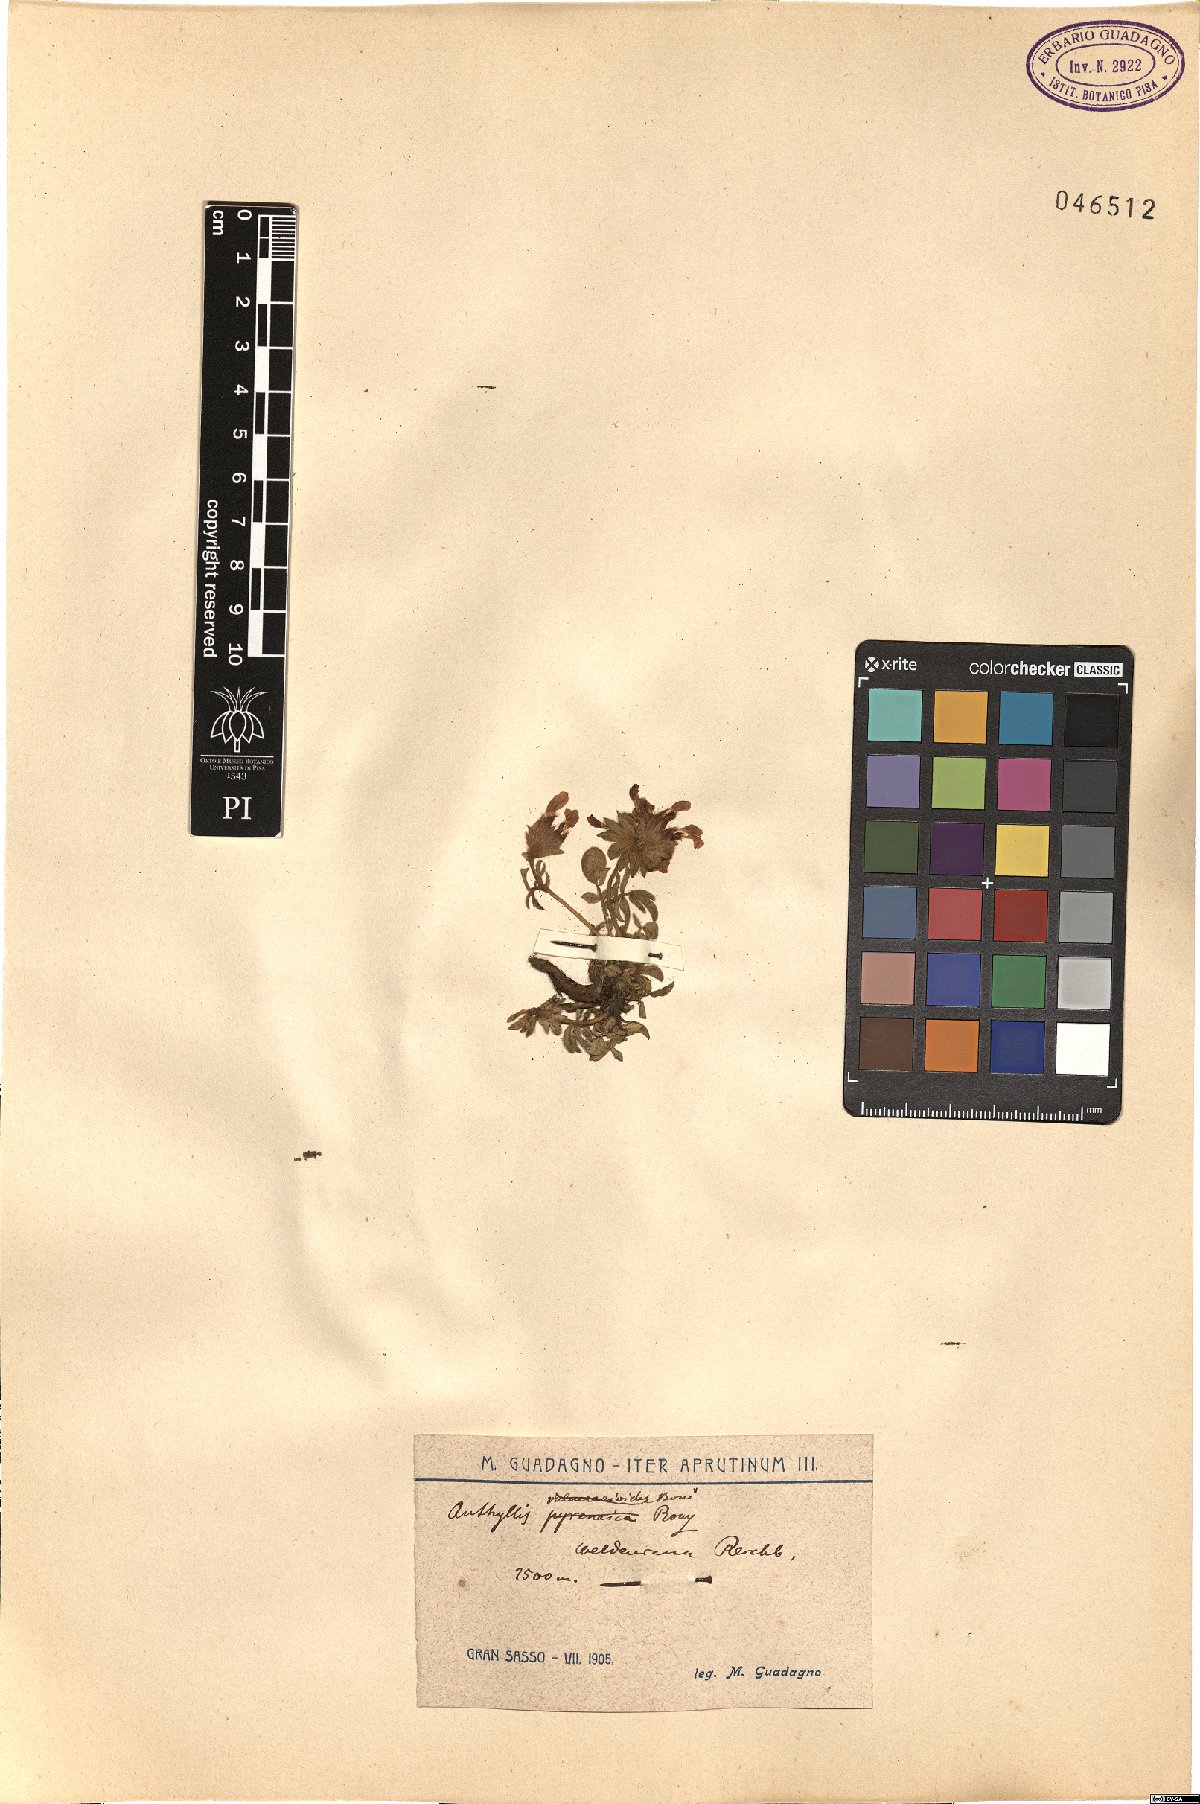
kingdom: Plantae
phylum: Tracheophyta
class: Magnoliopsida
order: Fabales
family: Fabaceae
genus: Anthyllis
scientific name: Anthyllis vulneraria
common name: Kidney vetch
